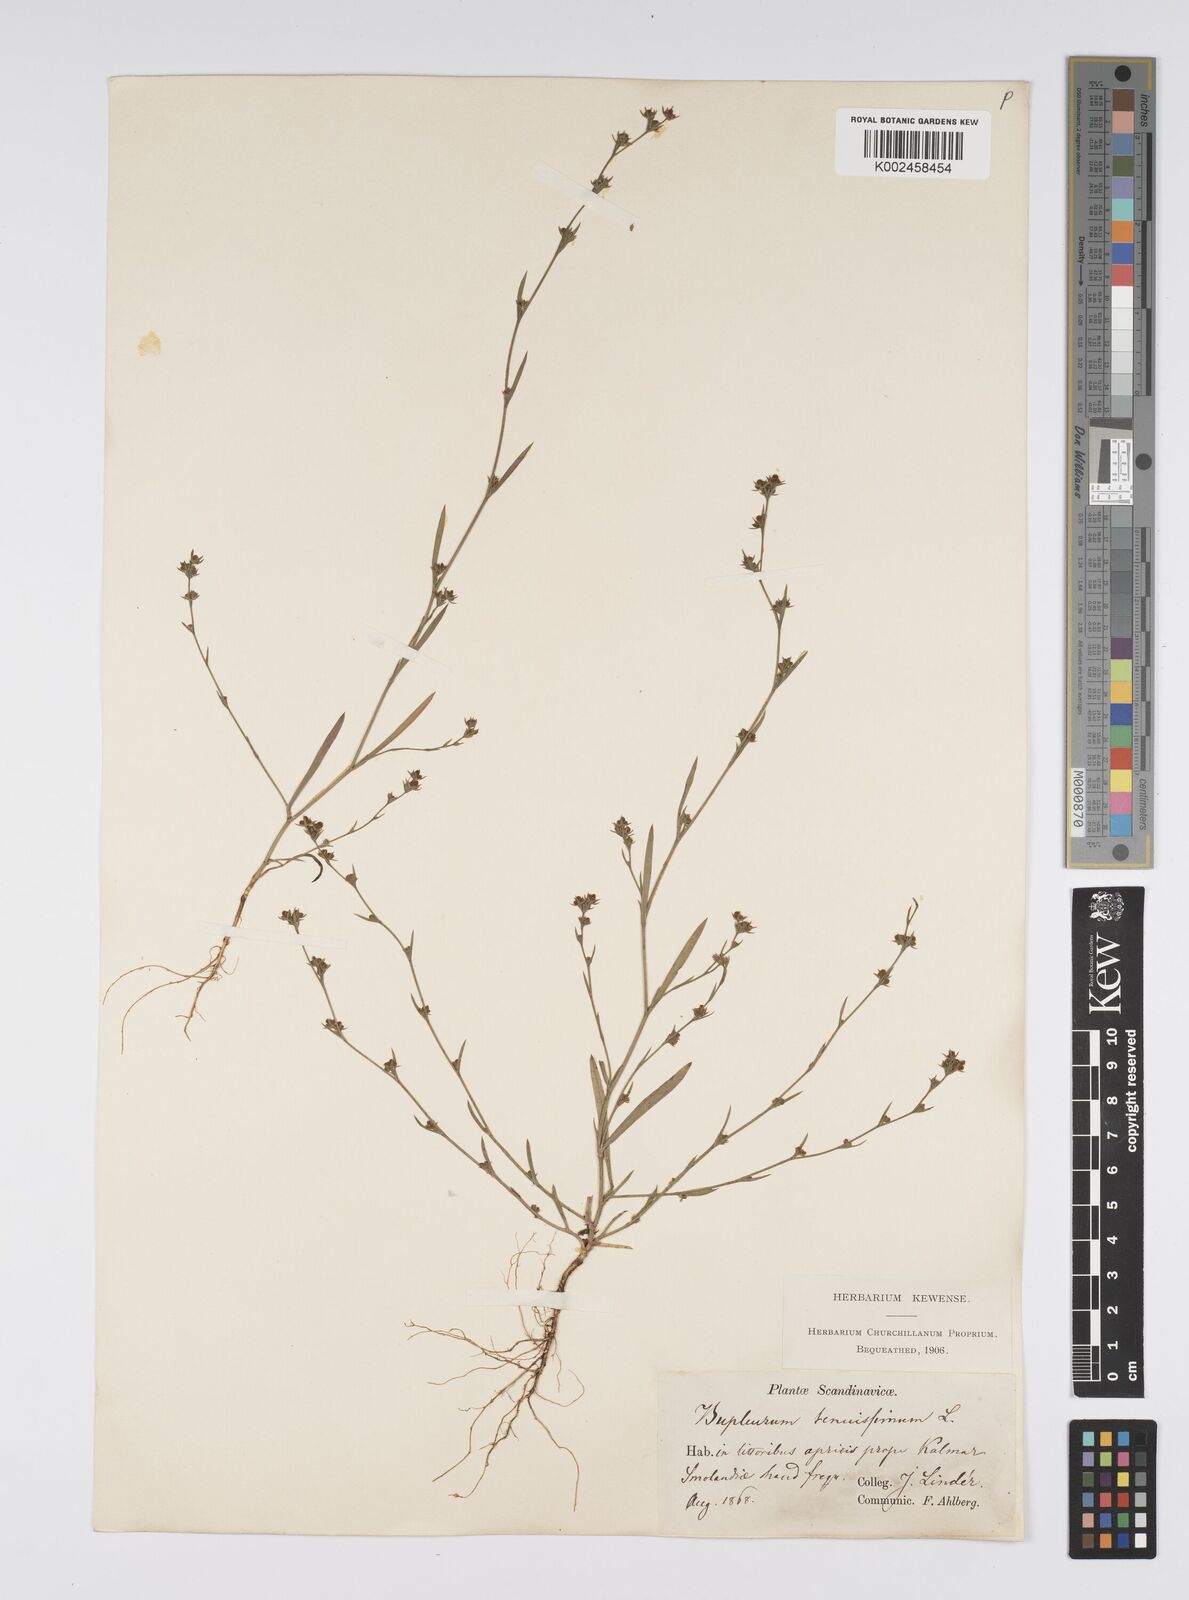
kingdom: Plantae
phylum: Tracheophyta
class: Magnoliopsida
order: Apiales
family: Apiaceae
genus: Bupleurum
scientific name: Bupleurum tenuissimum
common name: Slender hare's-ear
